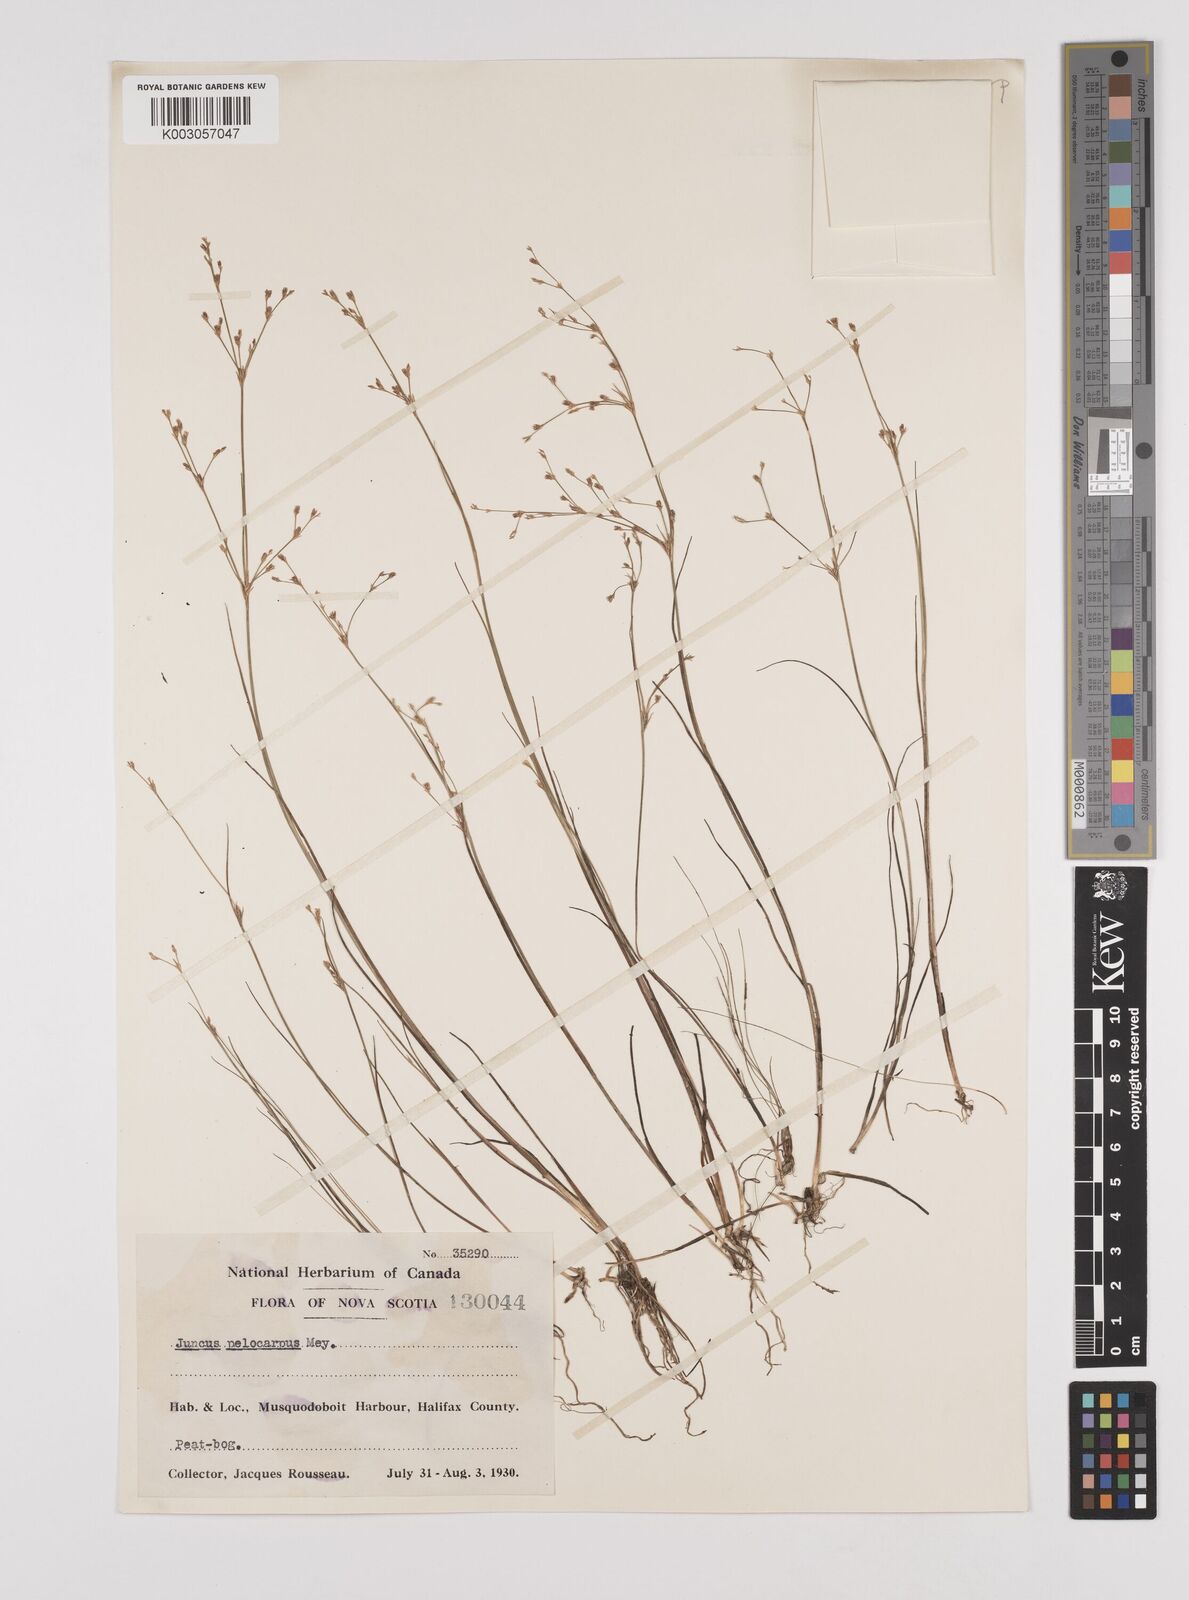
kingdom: Plantae
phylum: Tracheophyta
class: Liliopsida
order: Poales
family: Juncaceae
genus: Juncus
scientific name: Juncus pelocarpus
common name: Brown-fruited rush
